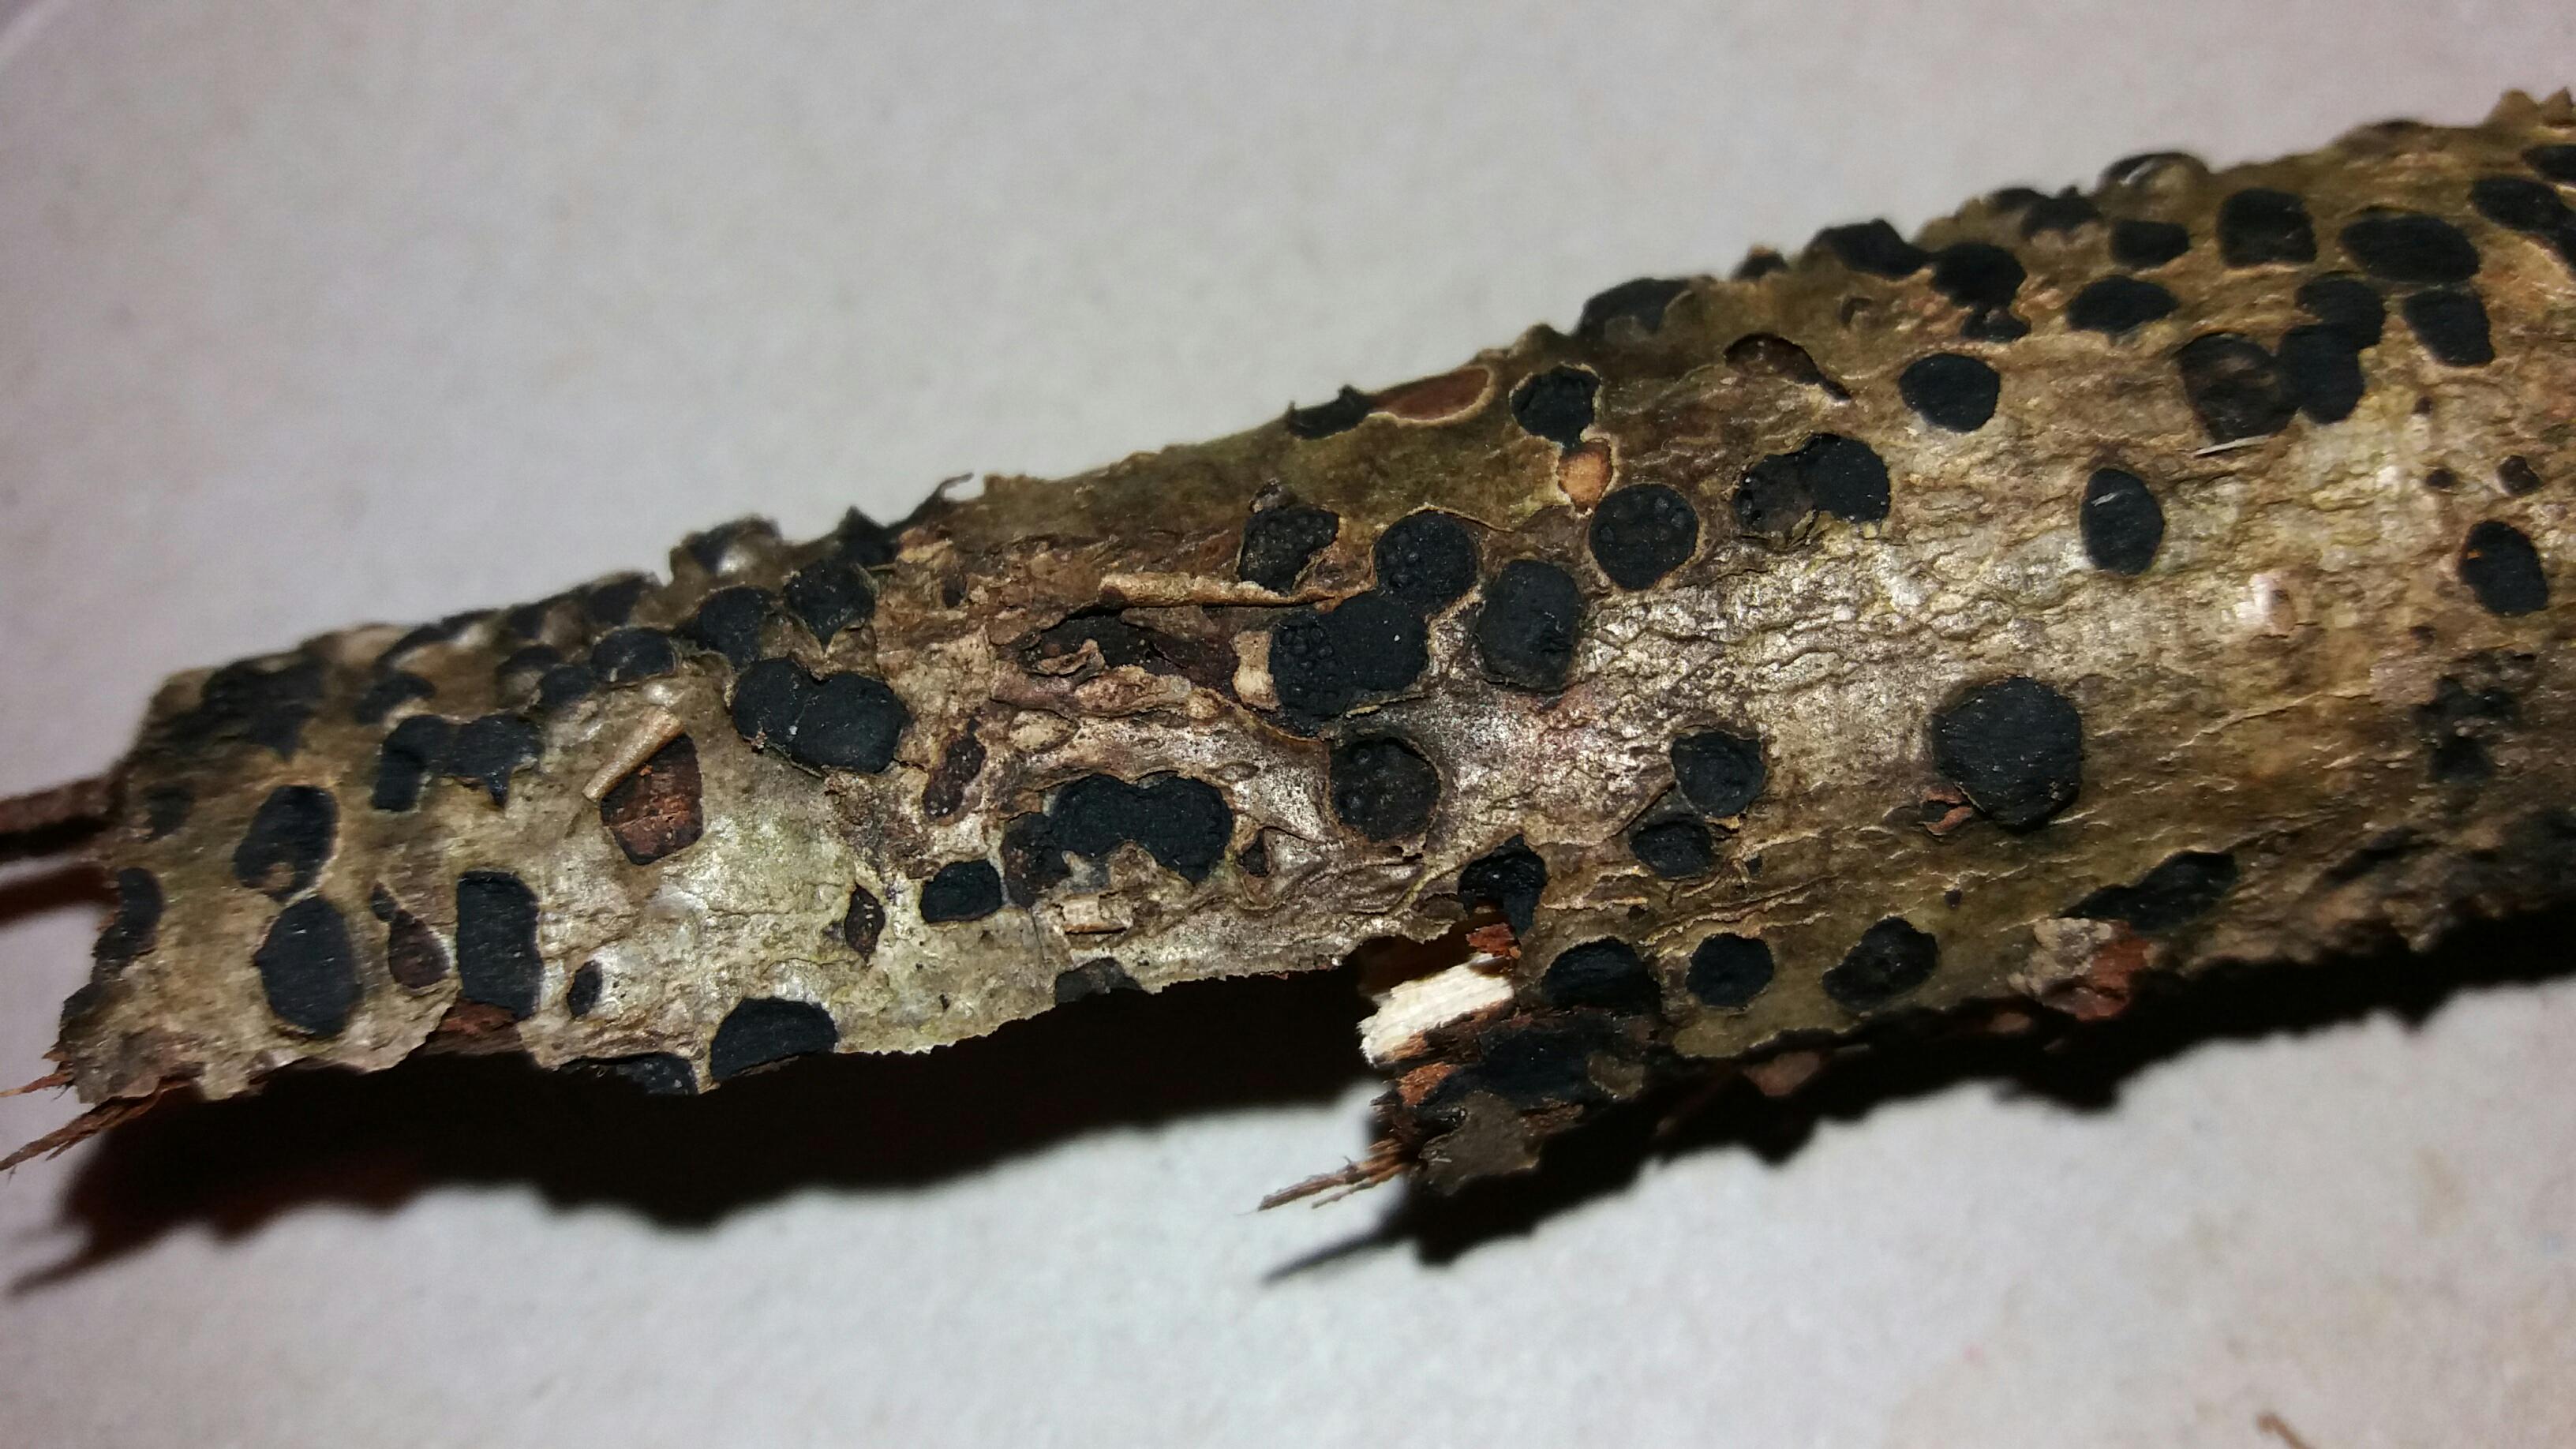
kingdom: Fungi
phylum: Ascomycota
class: Sordariomycetes
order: Xylariales
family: Diatrypaceae
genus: Diatrype
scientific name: Diatrype disciformis
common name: kant-kulskorpe
